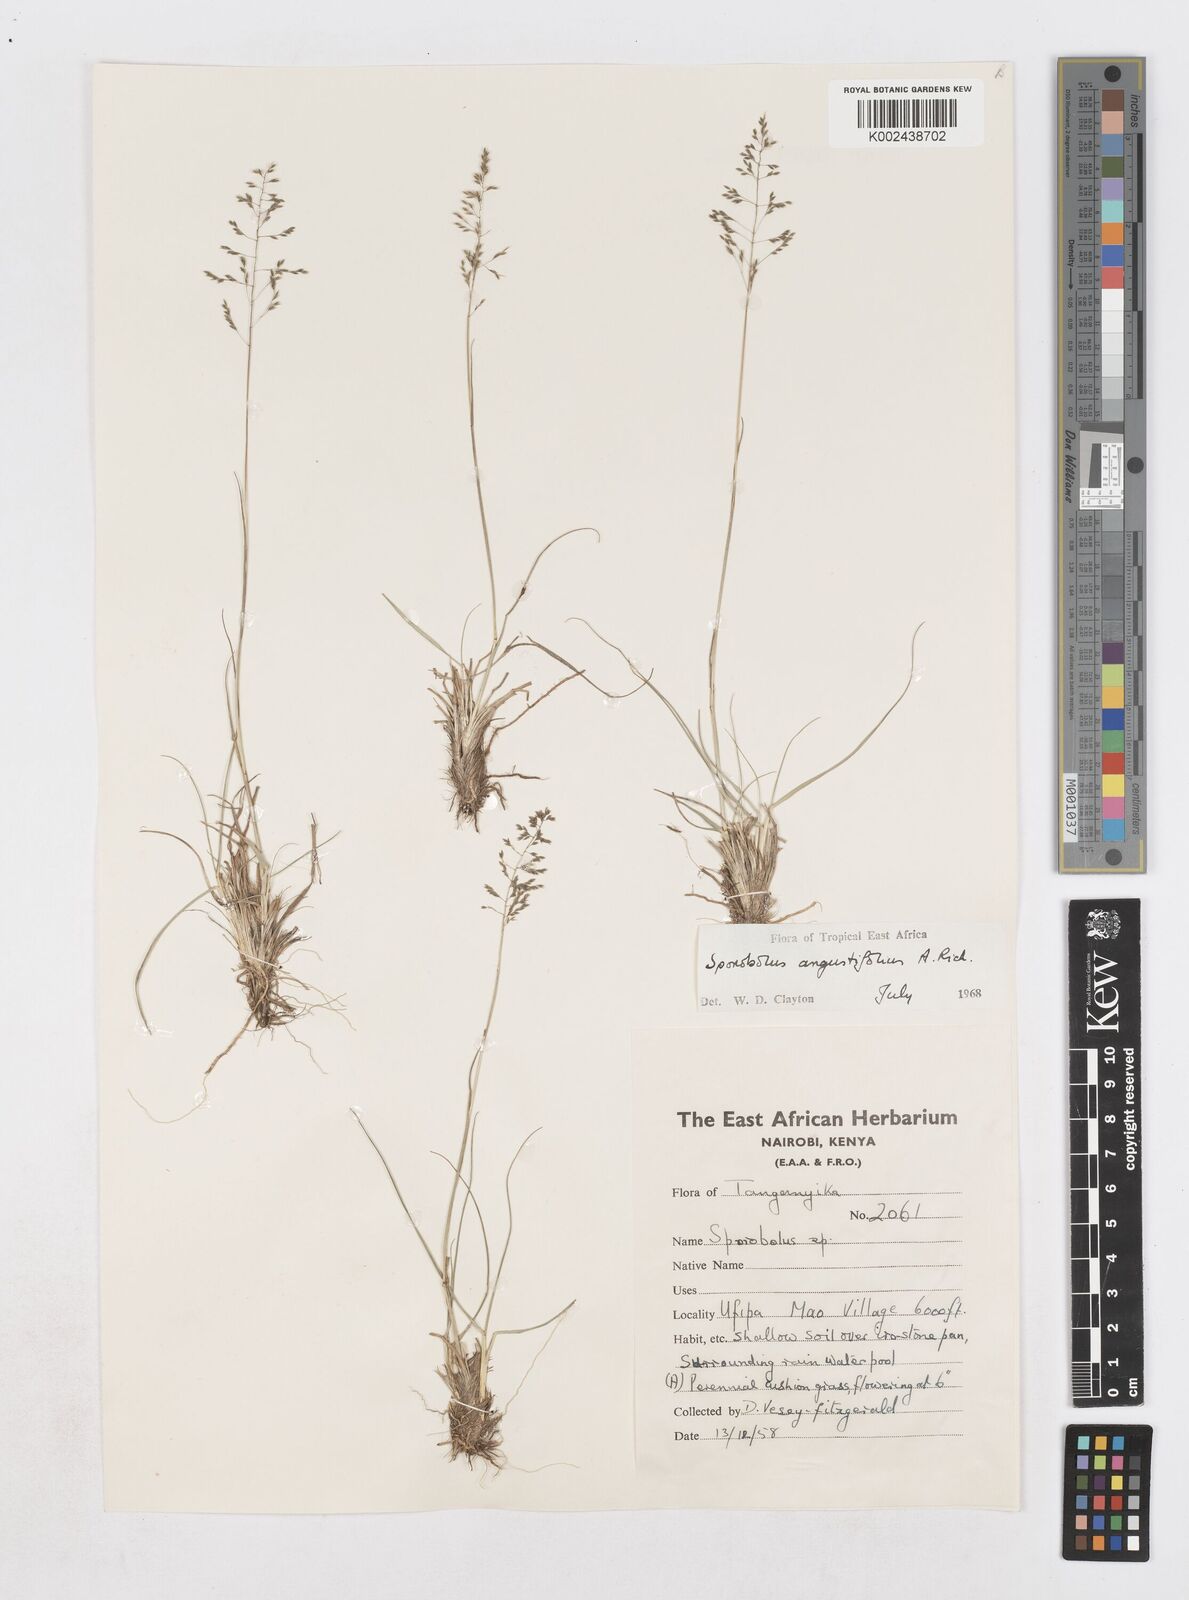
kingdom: Plantae
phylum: Tracheophyta
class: Liliopsida
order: Poales
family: Poaceae
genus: Sporobolus
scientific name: Sporobolus angustifolius
